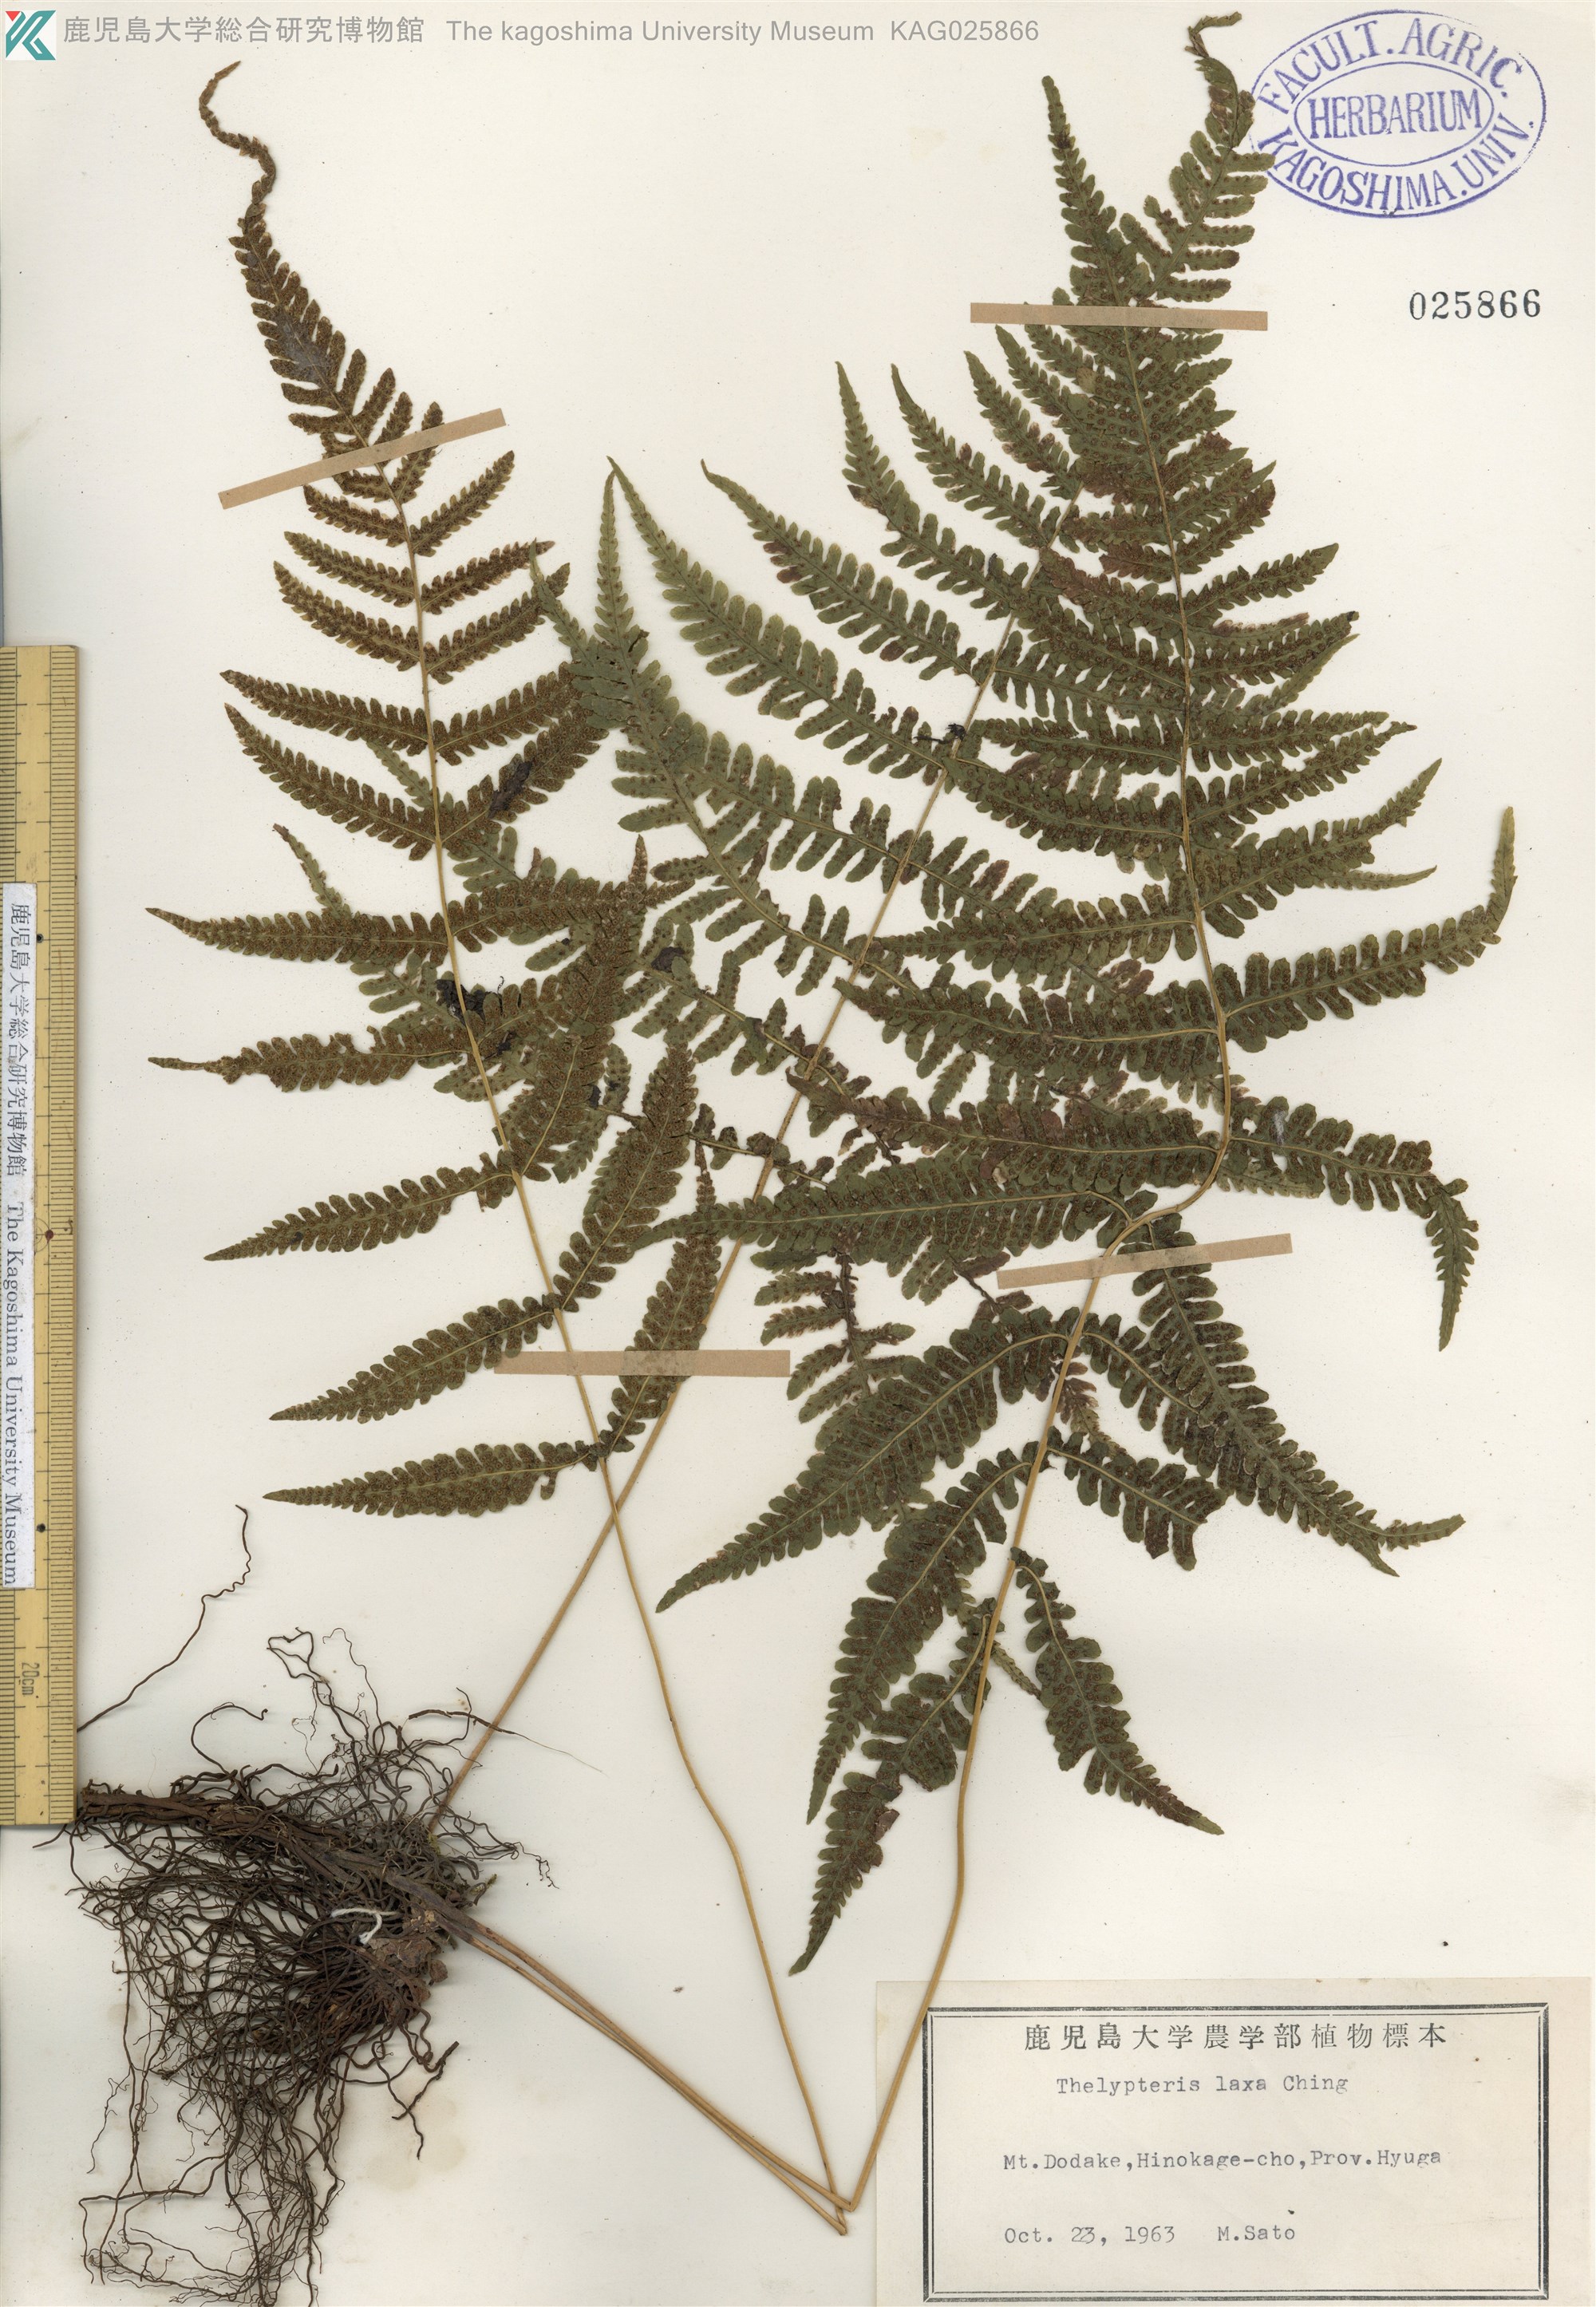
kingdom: Plantae
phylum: Tracheophyta
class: Polypodiopsida
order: Polypodiales
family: Thelypteridaceae
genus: Metathelypteris
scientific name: Metathelypteris laxa
